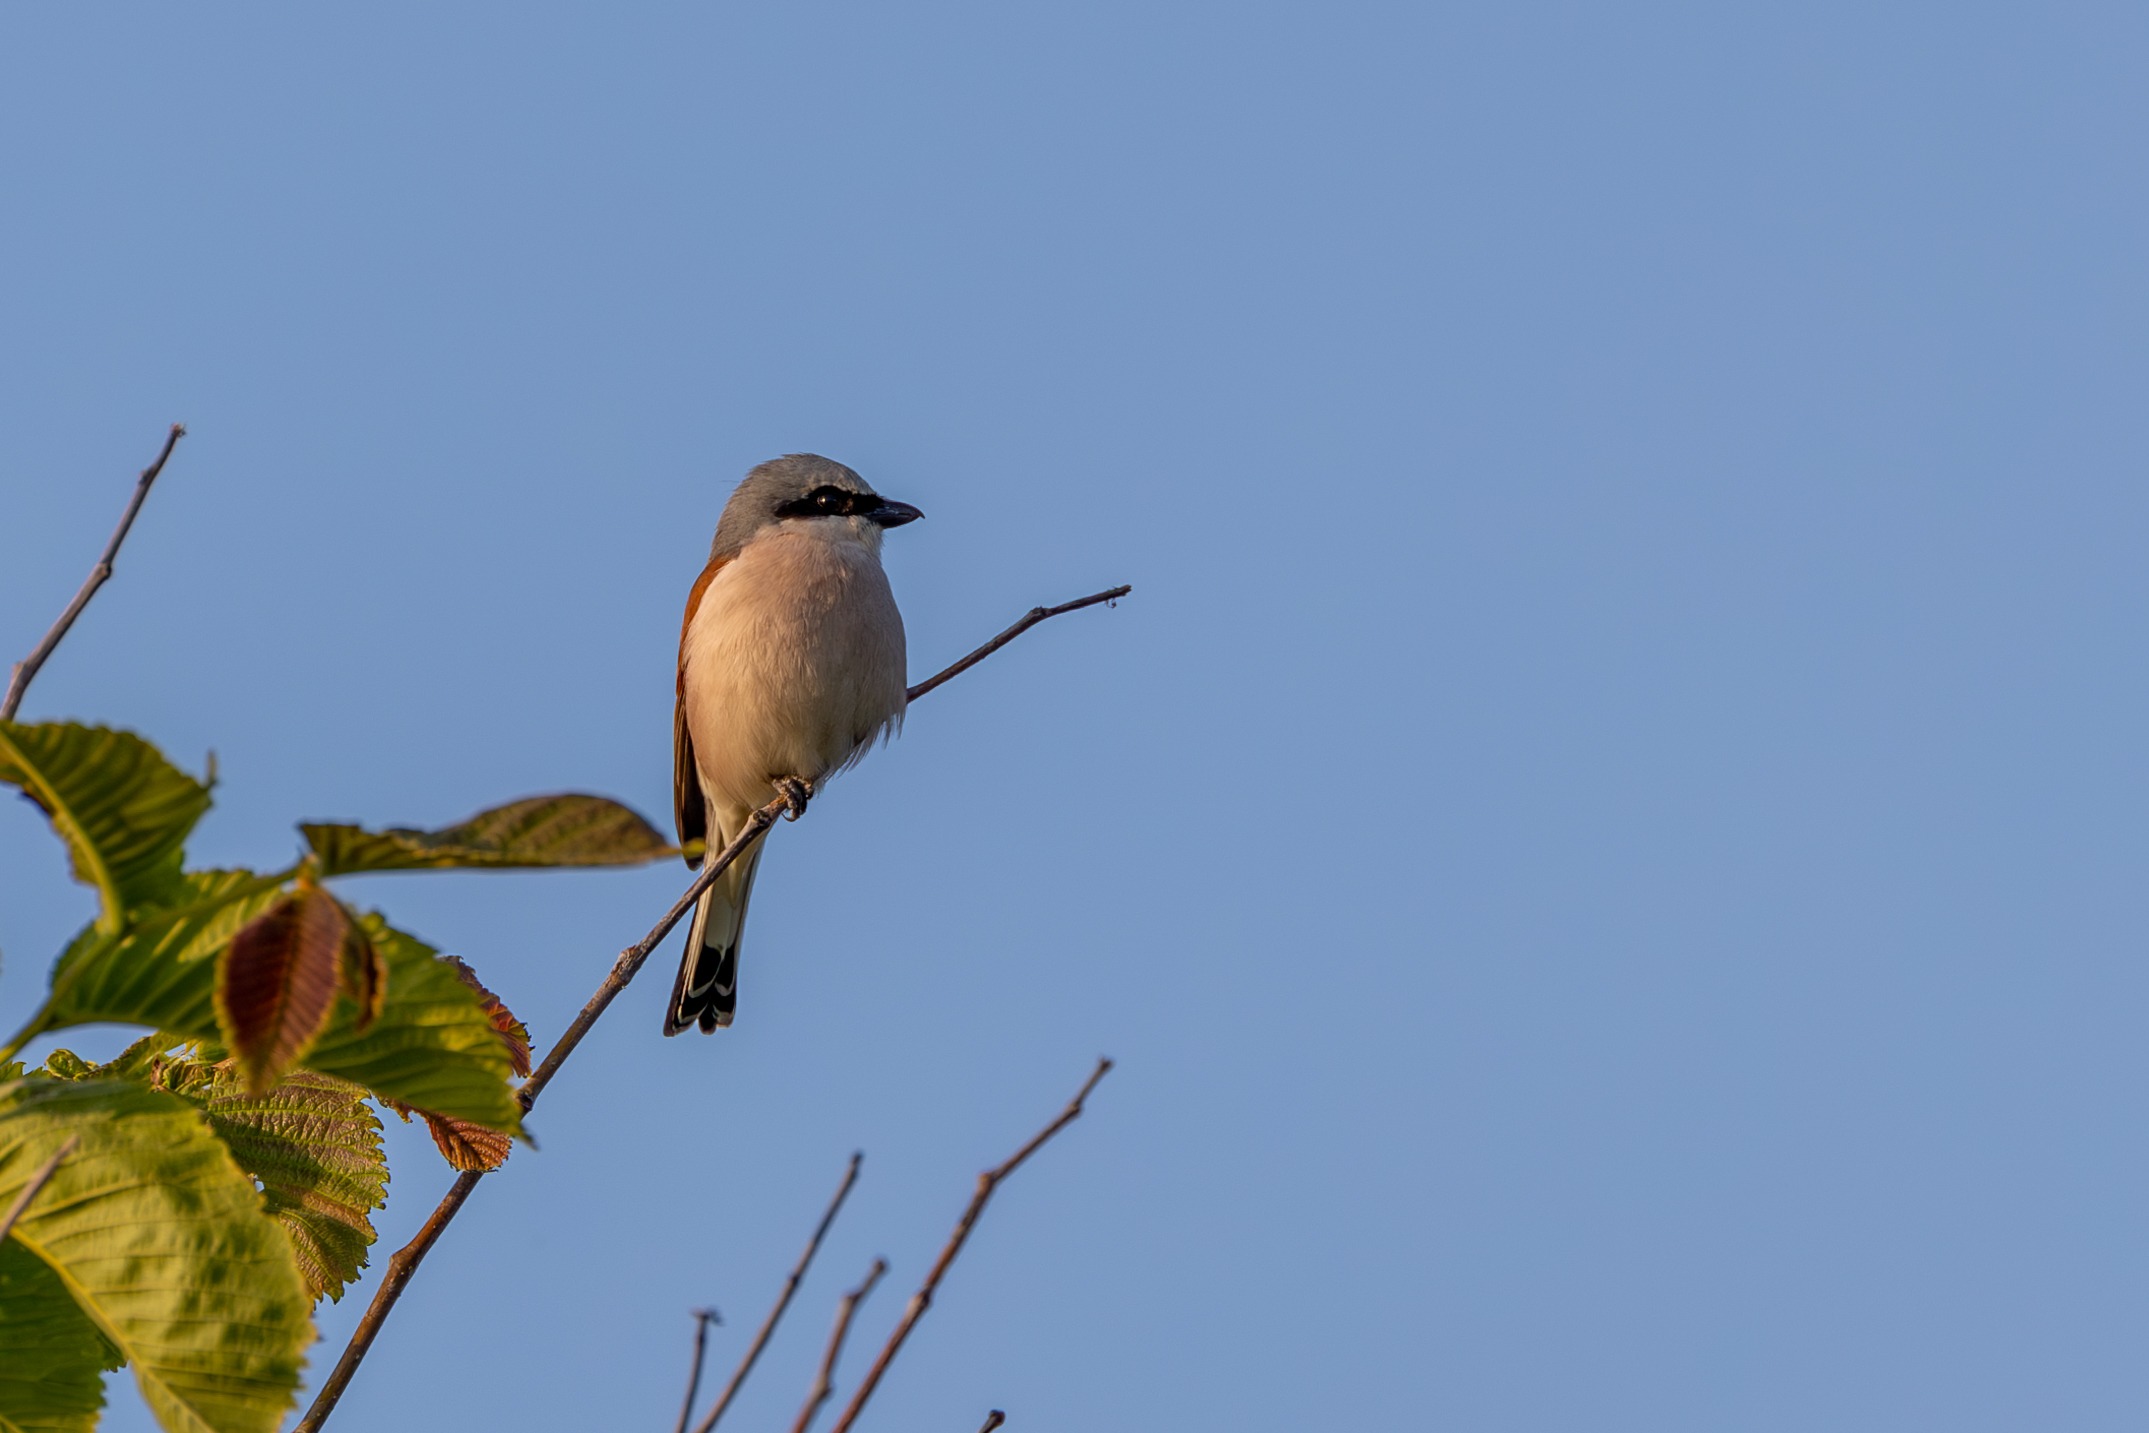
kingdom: Animalia
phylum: Chordata
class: Aves
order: Passeriformes
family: Laniidae
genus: Lanius
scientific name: Lanius collurio
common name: Rødrygget tornskade
